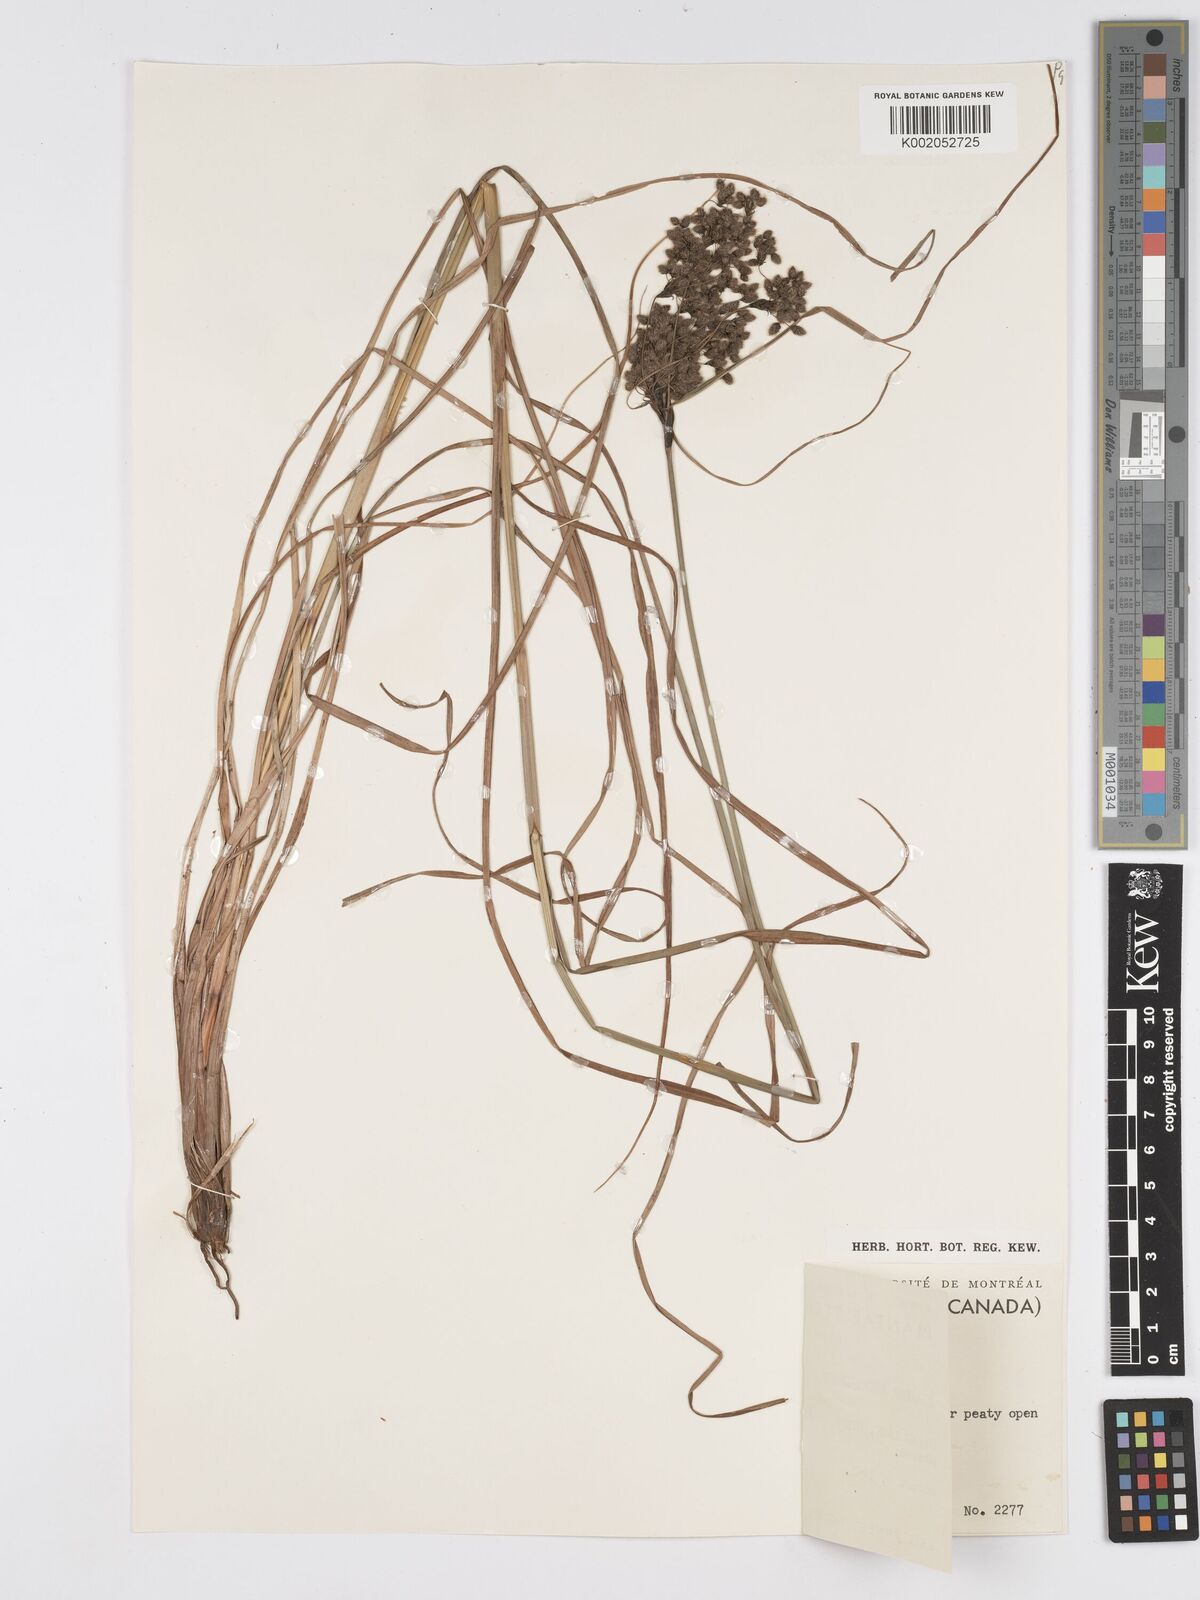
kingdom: Plantae
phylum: Tracheophyta
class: Liliopsida
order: Poales
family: Cyperaceae
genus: Scirpus
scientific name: Scirpus cyperinus
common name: Black-sheathed bulrush
